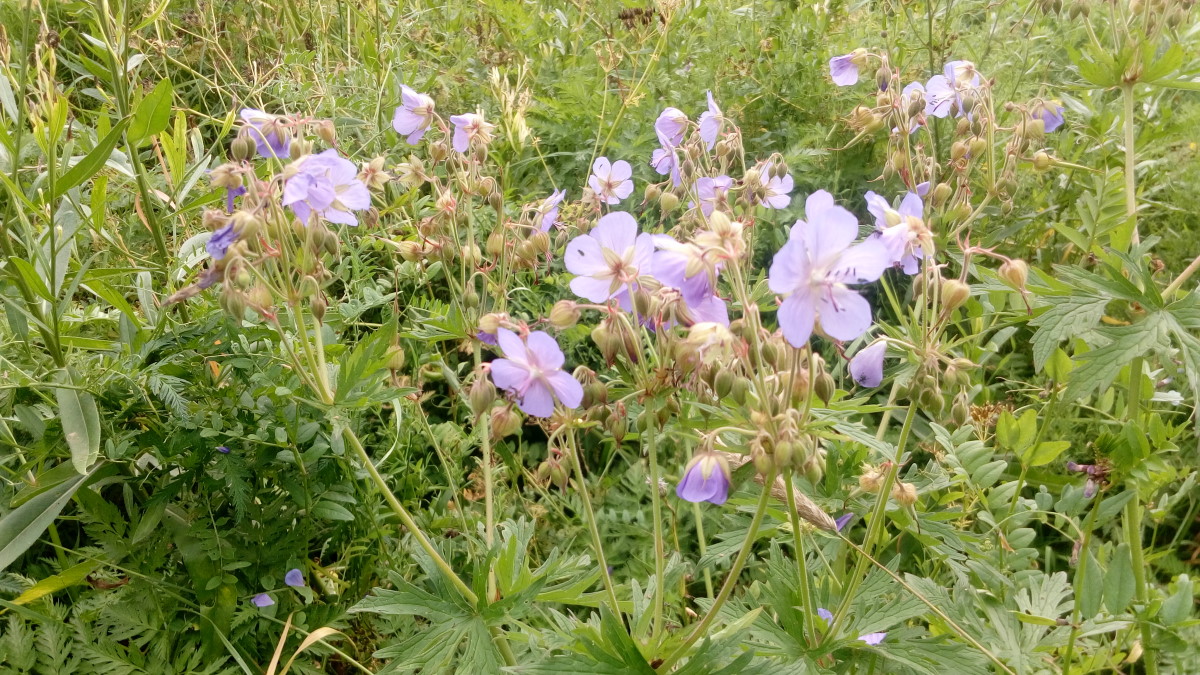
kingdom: Plantae
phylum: Tracheophyta
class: Magnoliopsida
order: Geraniales
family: Geraniaceae
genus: Geranium
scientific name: Geranium pratense
